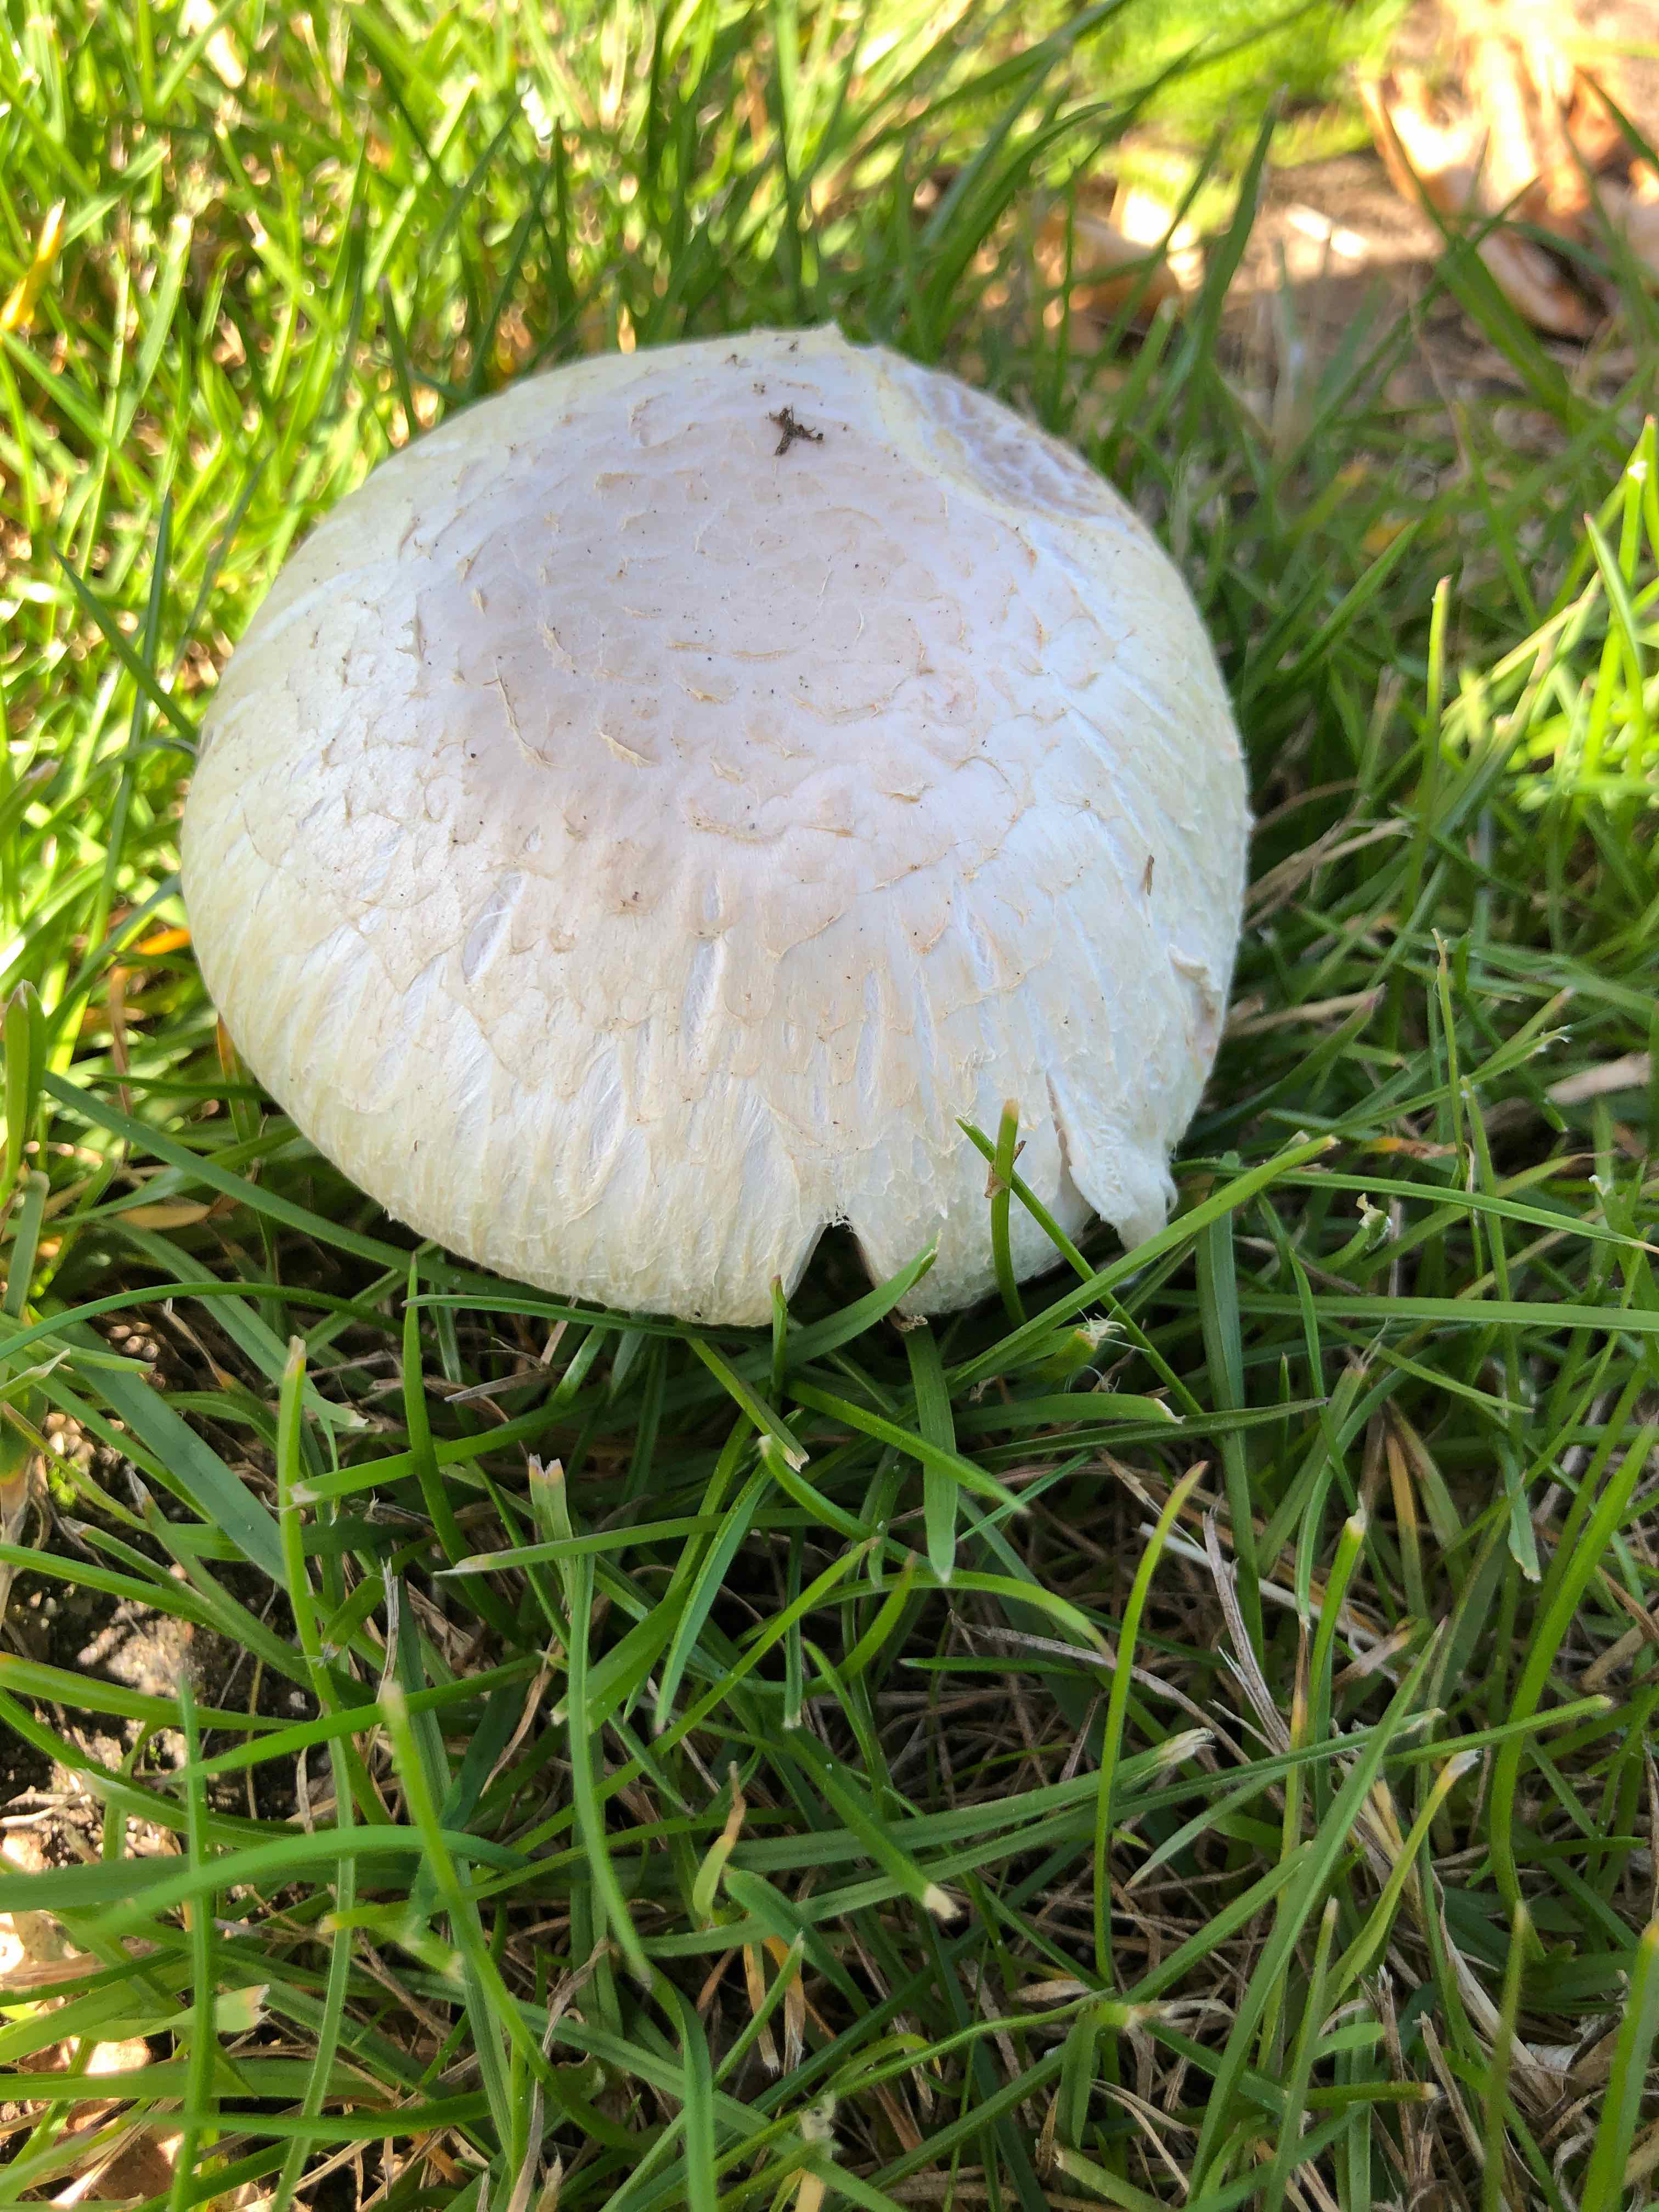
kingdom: Fungi
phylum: Basidiomycota
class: Agaricomycetes
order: Agaricales
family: Agaricaceae
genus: Agaricus
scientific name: Agaricus campestris
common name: mark-champignon
